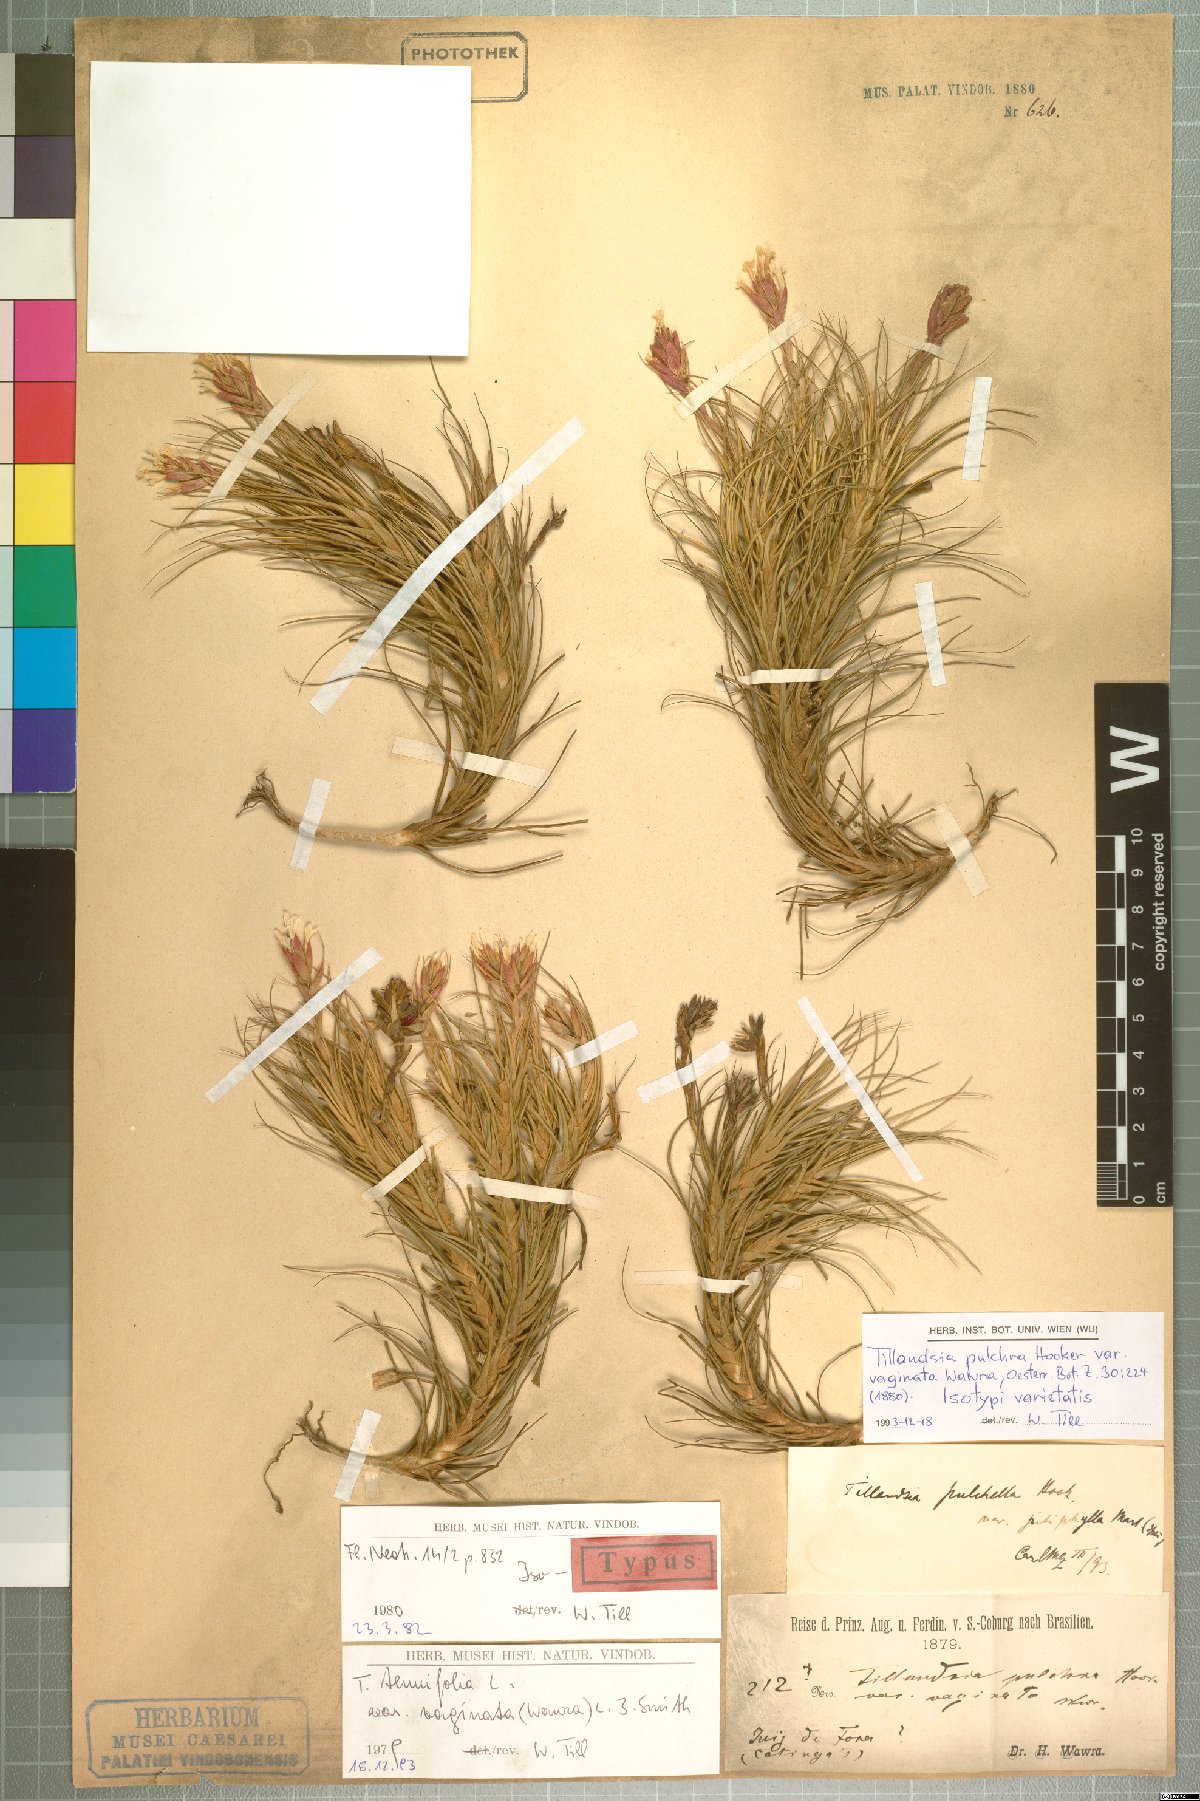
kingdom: Plantae
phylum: Tracheophyta
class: Liliopsida
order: Poales
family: Bromeliaceae
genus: Tillandsia
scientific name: Tillandsia tenuifolia
